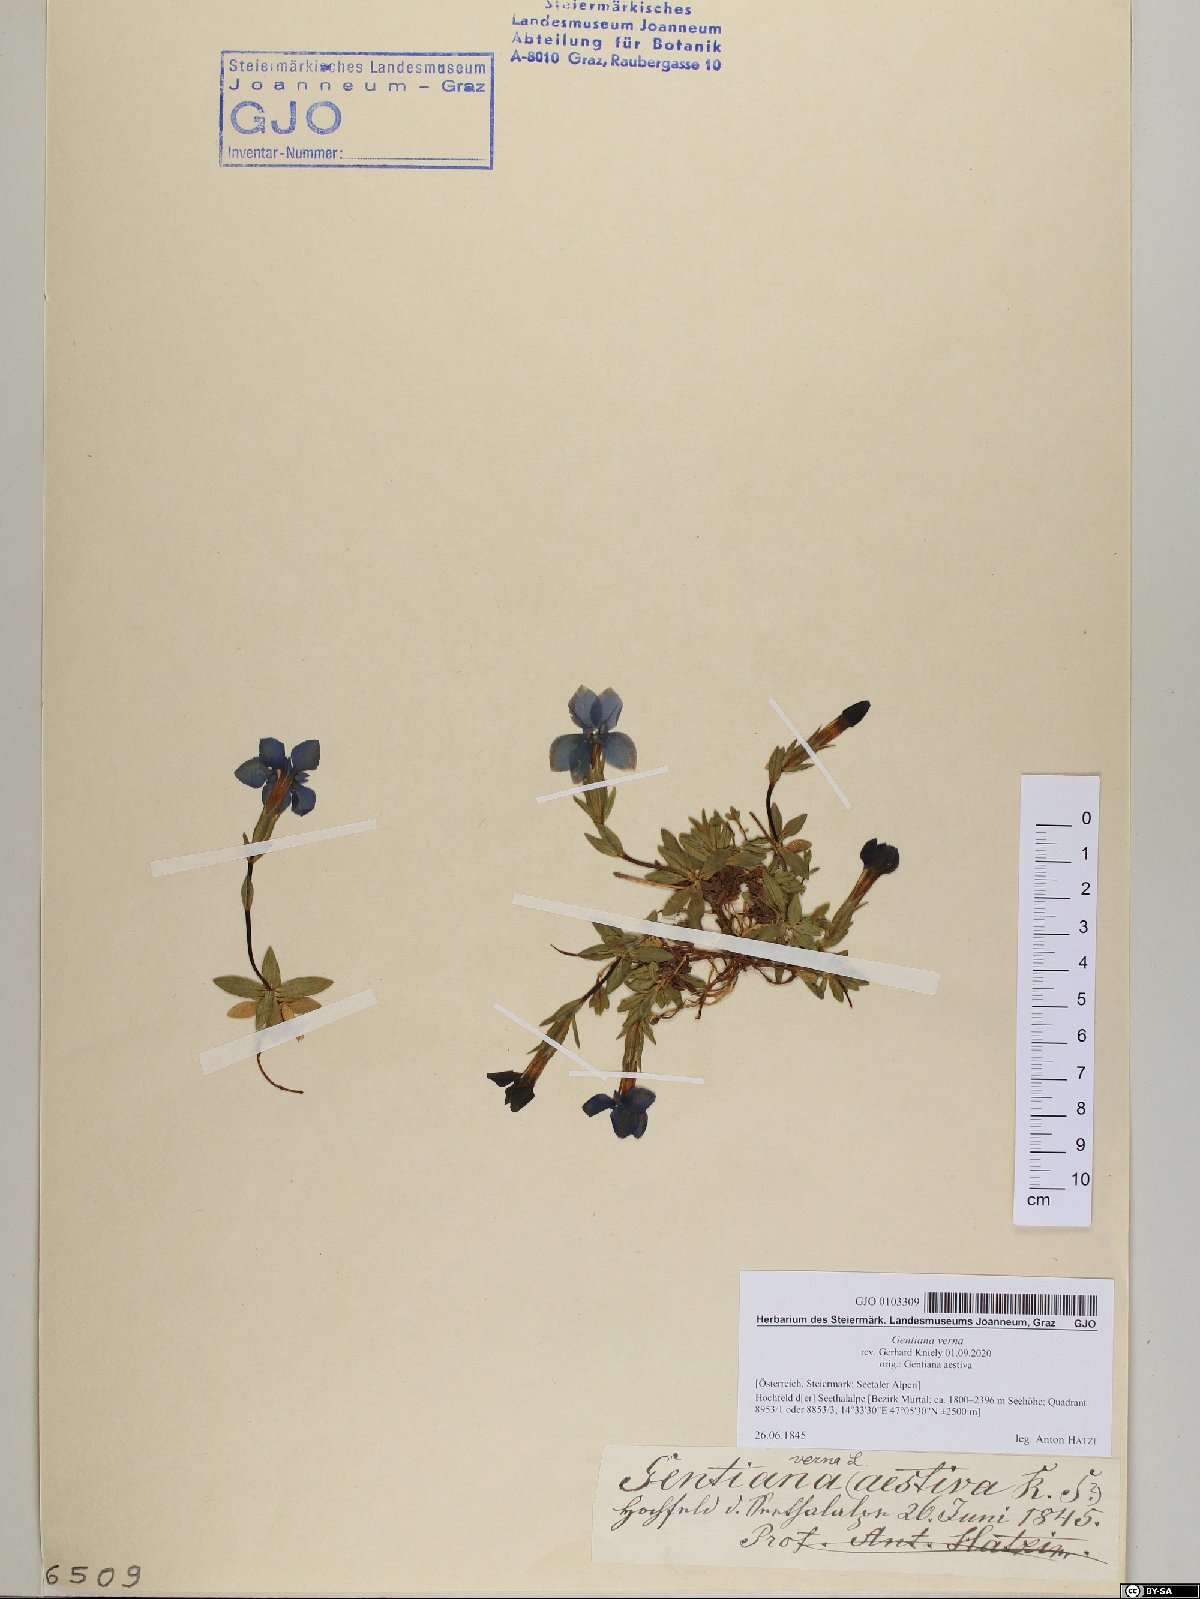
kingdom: Plantae
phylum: Tracheophyta
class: Magnoliopsida
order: Gentianales
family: Gentianaceae
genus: Gentiana
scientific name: Gentiana verna
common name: Spring gentian
